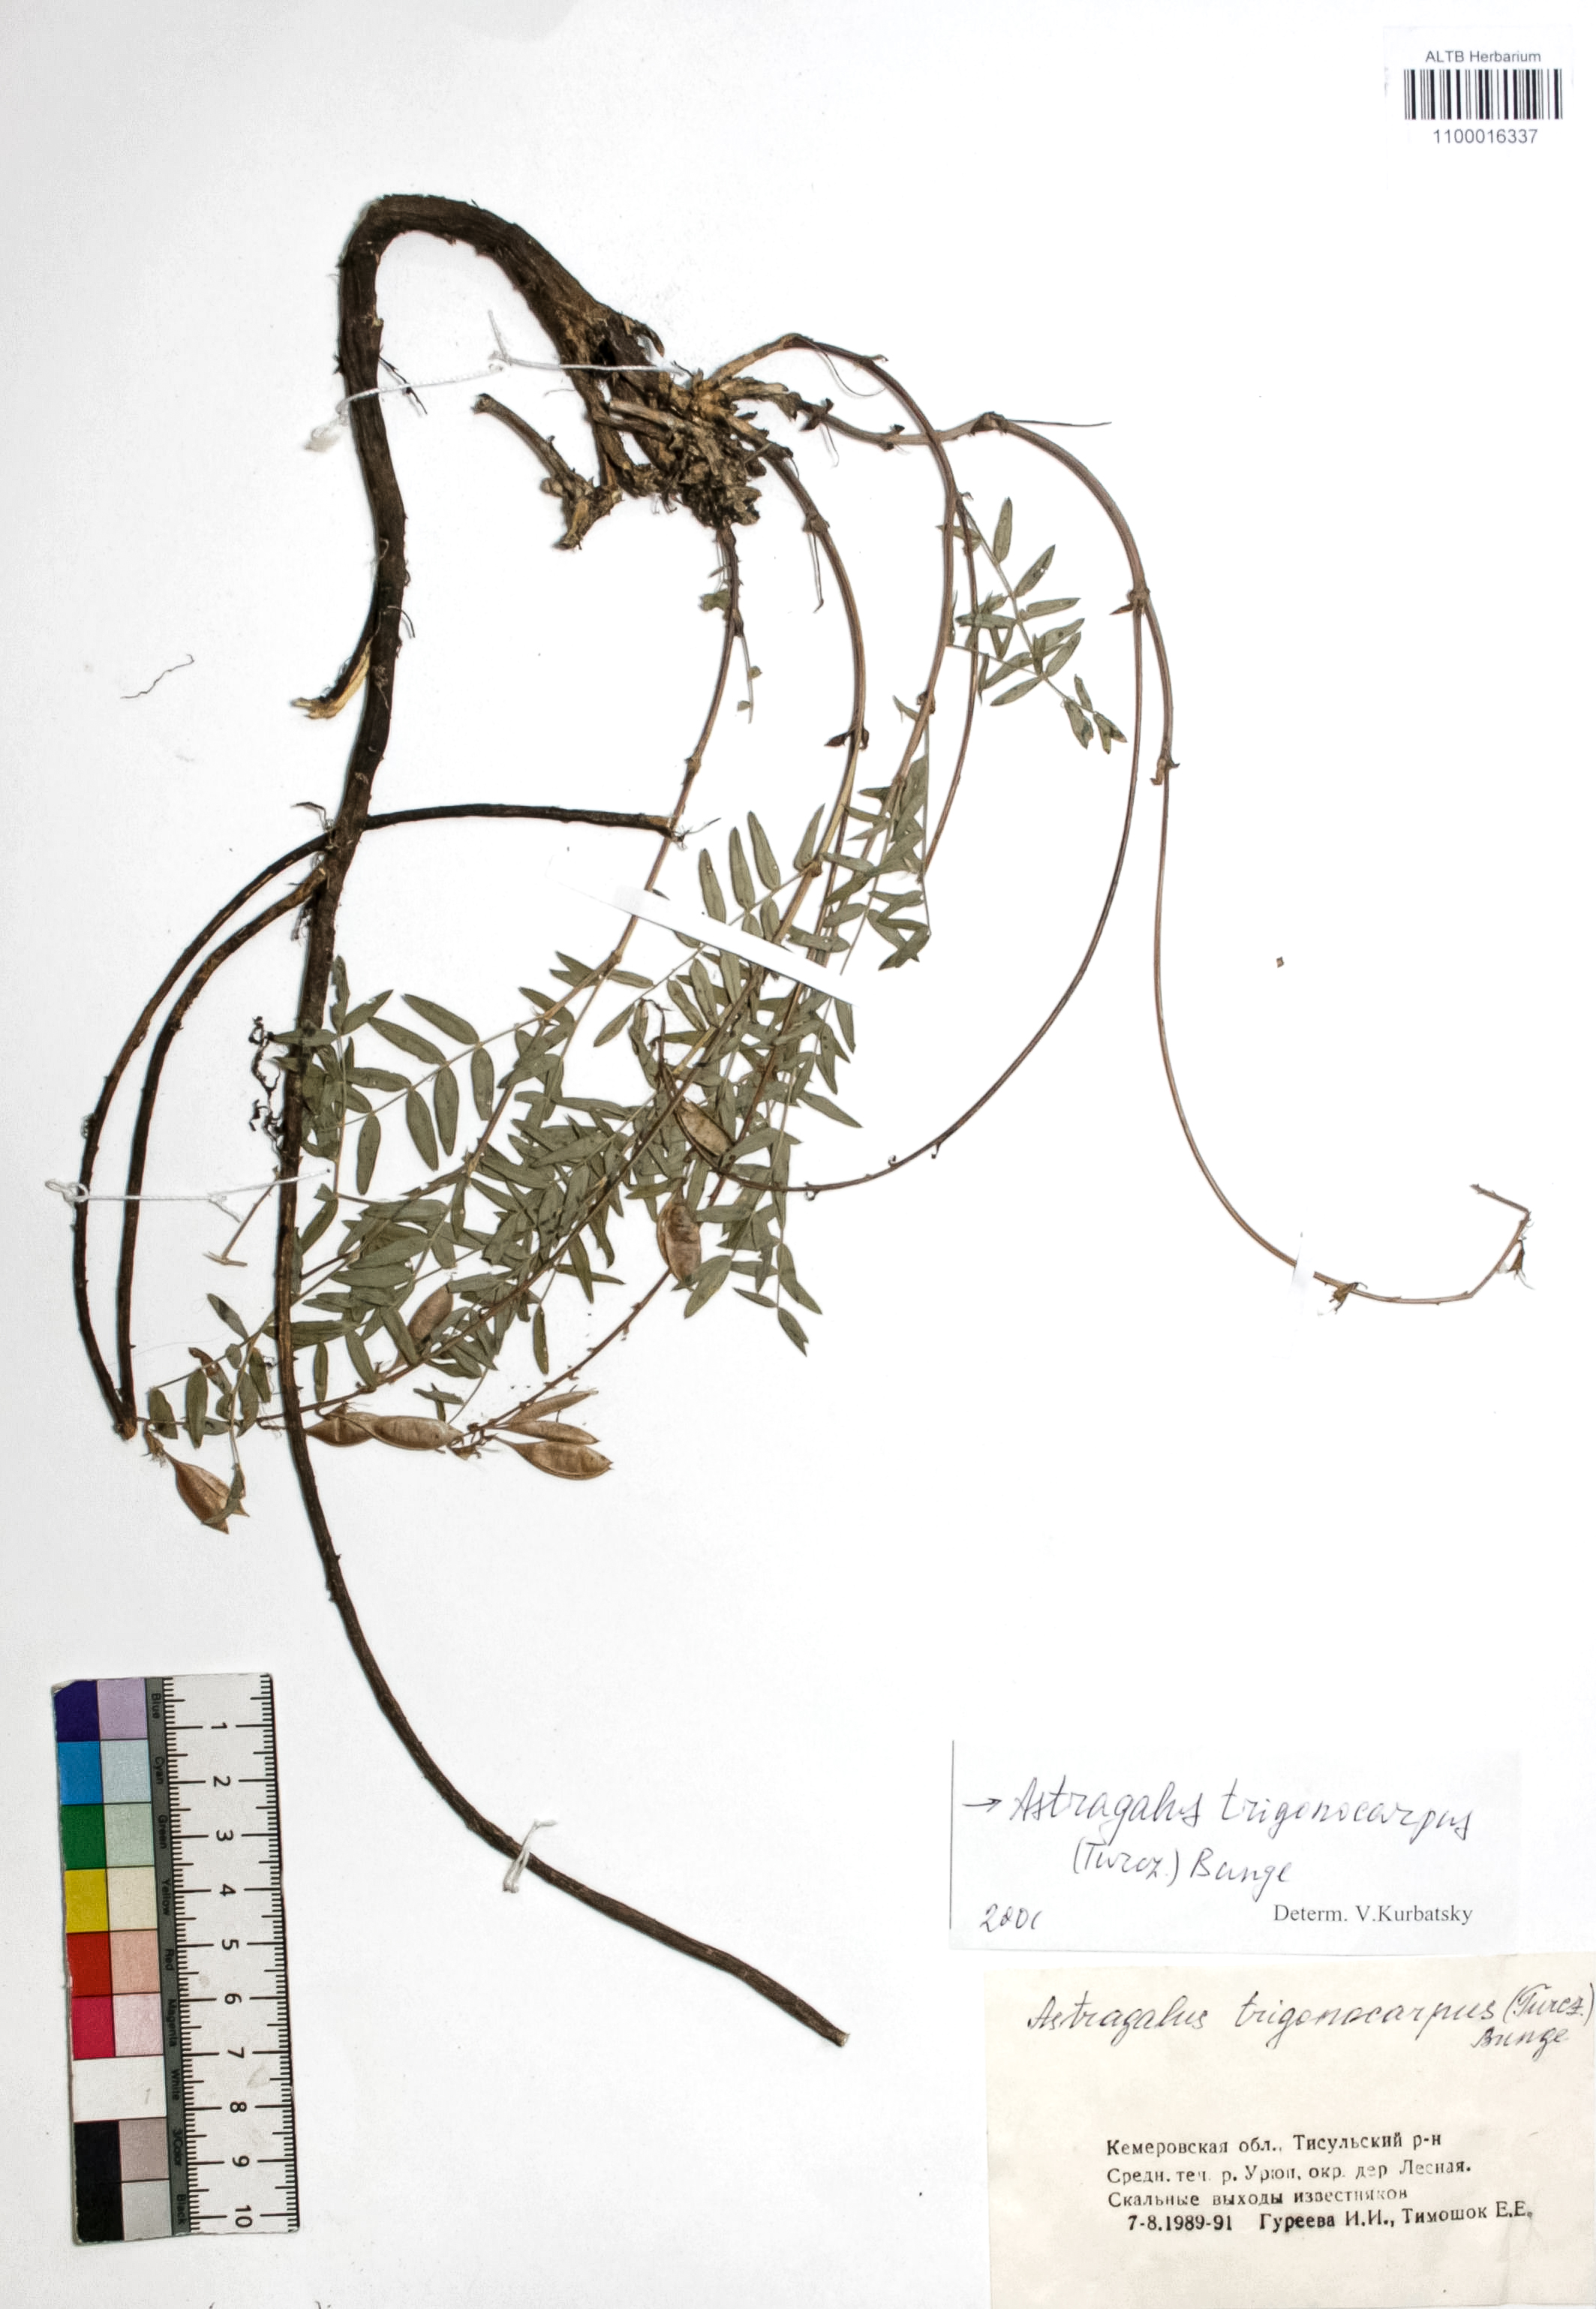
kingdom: Plantae
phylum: Tracheophyta
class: Magnoliopsida
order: Fabales
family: Fabaceae
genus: Astragalus
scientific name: Astragalus trigonocarpus
